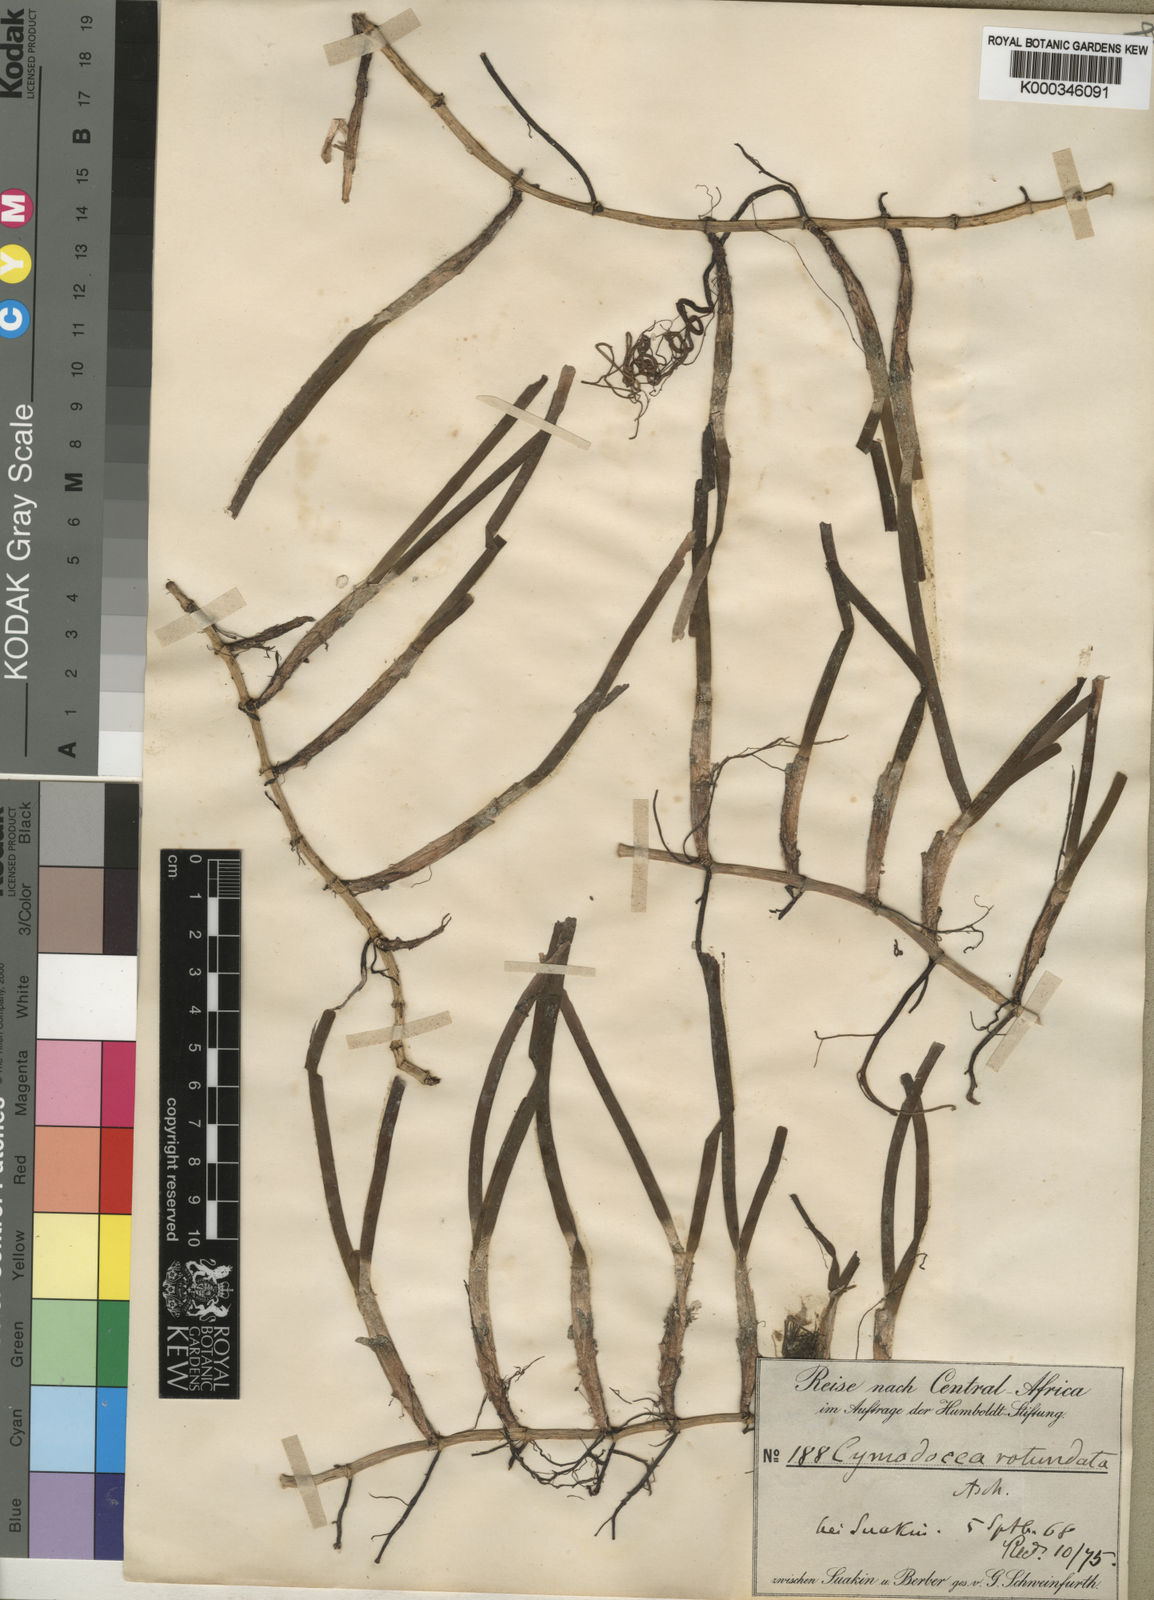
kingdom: Plantae
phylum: Tracheophyta
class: Liliopsida
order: Alismatales
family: Cymodoceaceae
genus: Cymodocea
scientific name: Cymodocea rotundata
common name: Species code: cr
